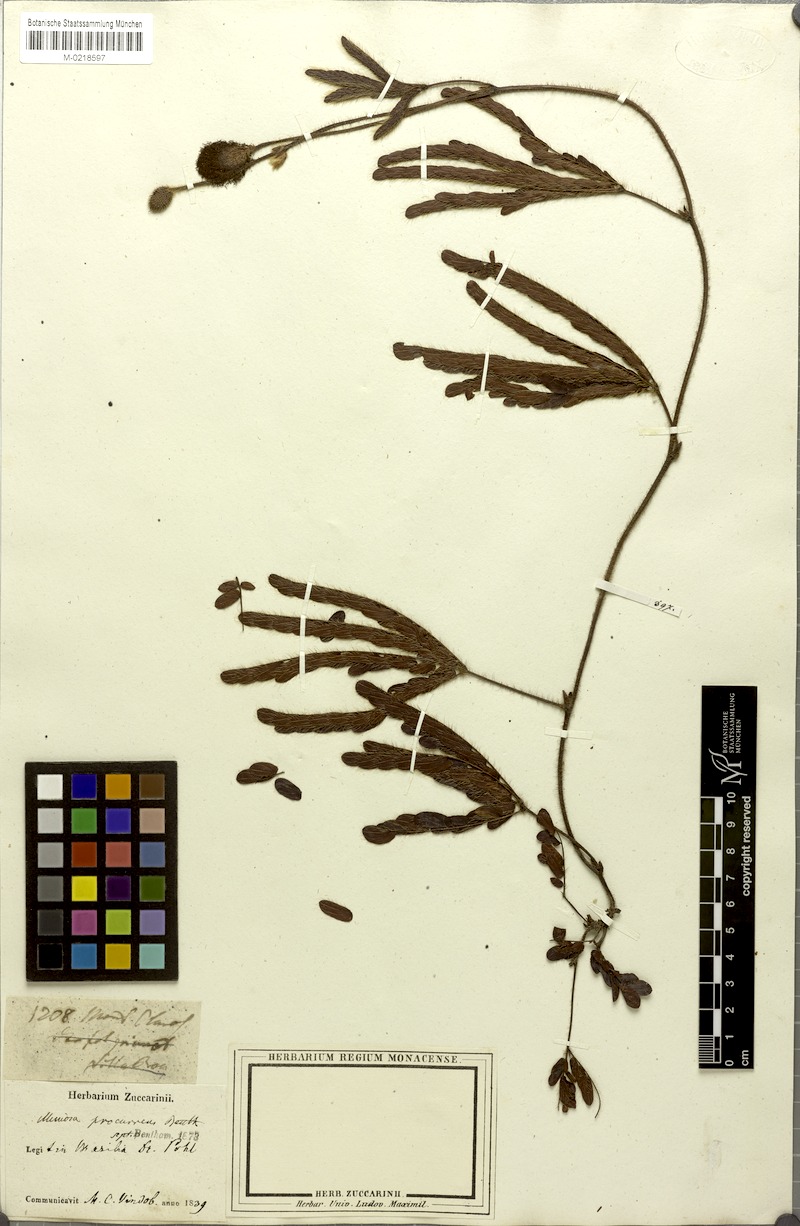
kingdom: Plantae
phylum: Tracheophyta
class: Magnoliopsida
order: Fabales
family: Fabaceae
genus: Mimosa
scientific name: Mimosa procurrens
